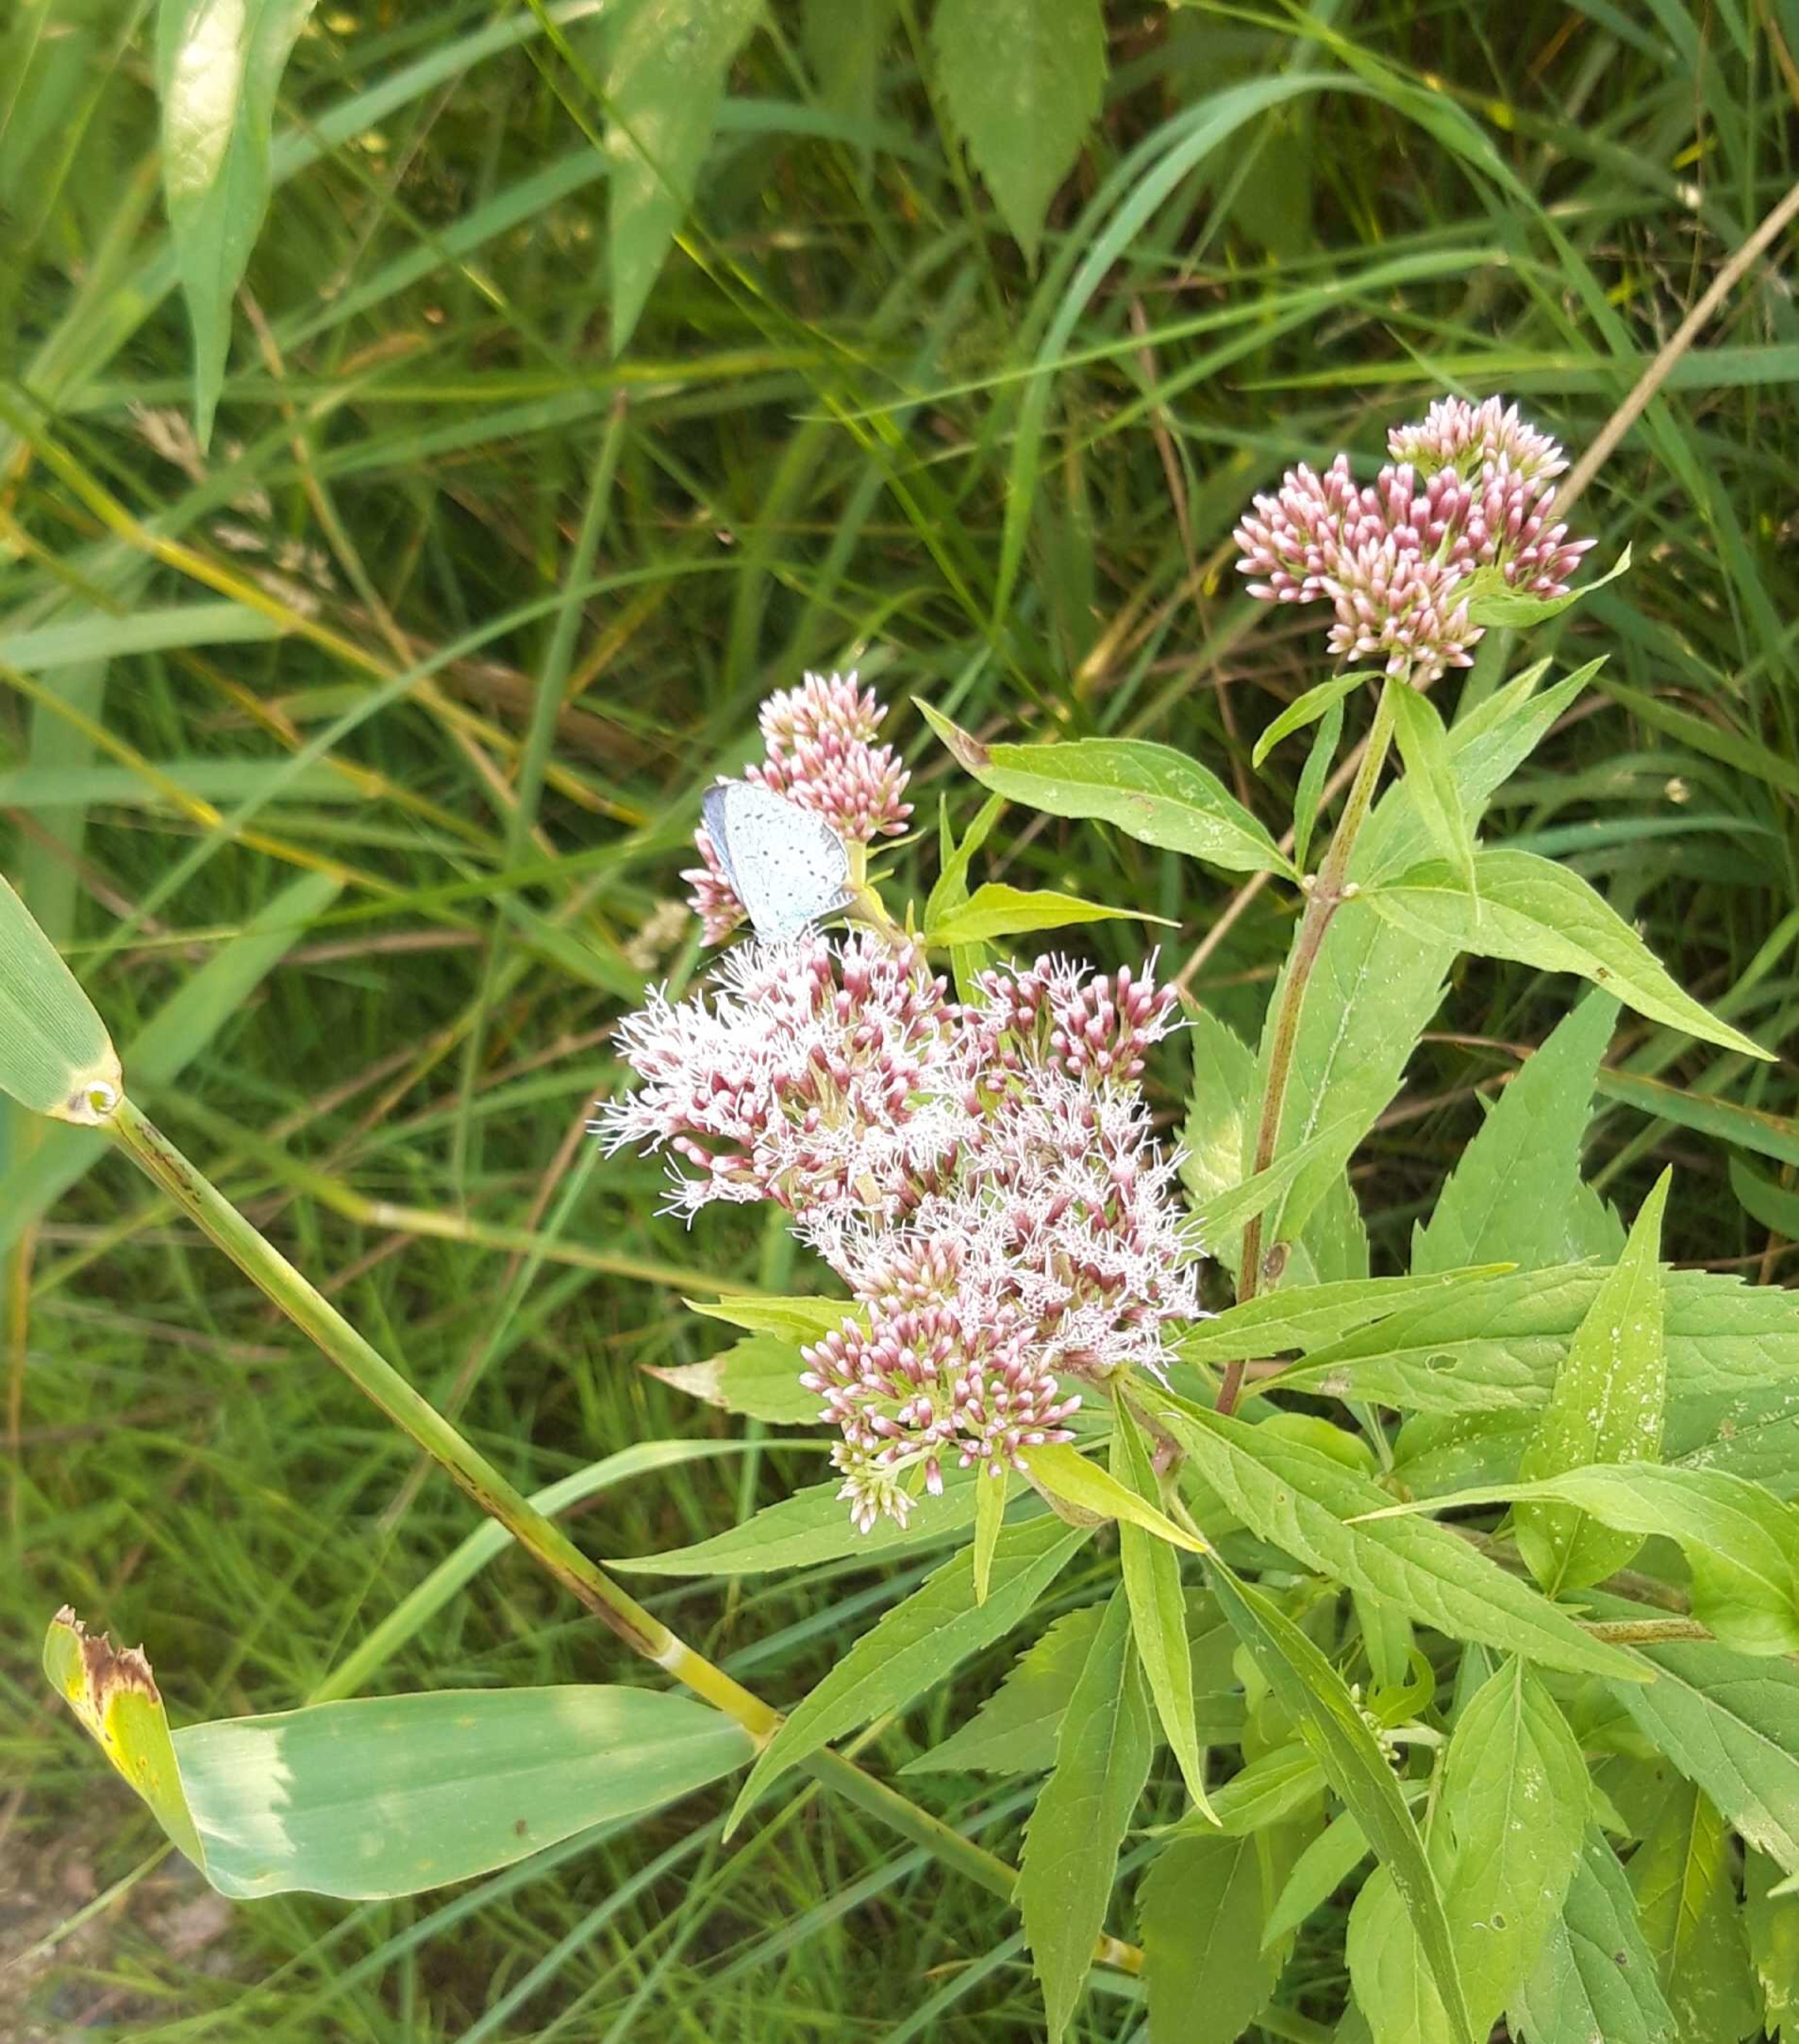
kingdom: Animalia
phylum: Arthropoda
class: Insecta
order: Lepidoptera
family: Lycaenidae
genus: Celastrina
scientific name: Celastrina argiolus
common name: Skovblåfugl
